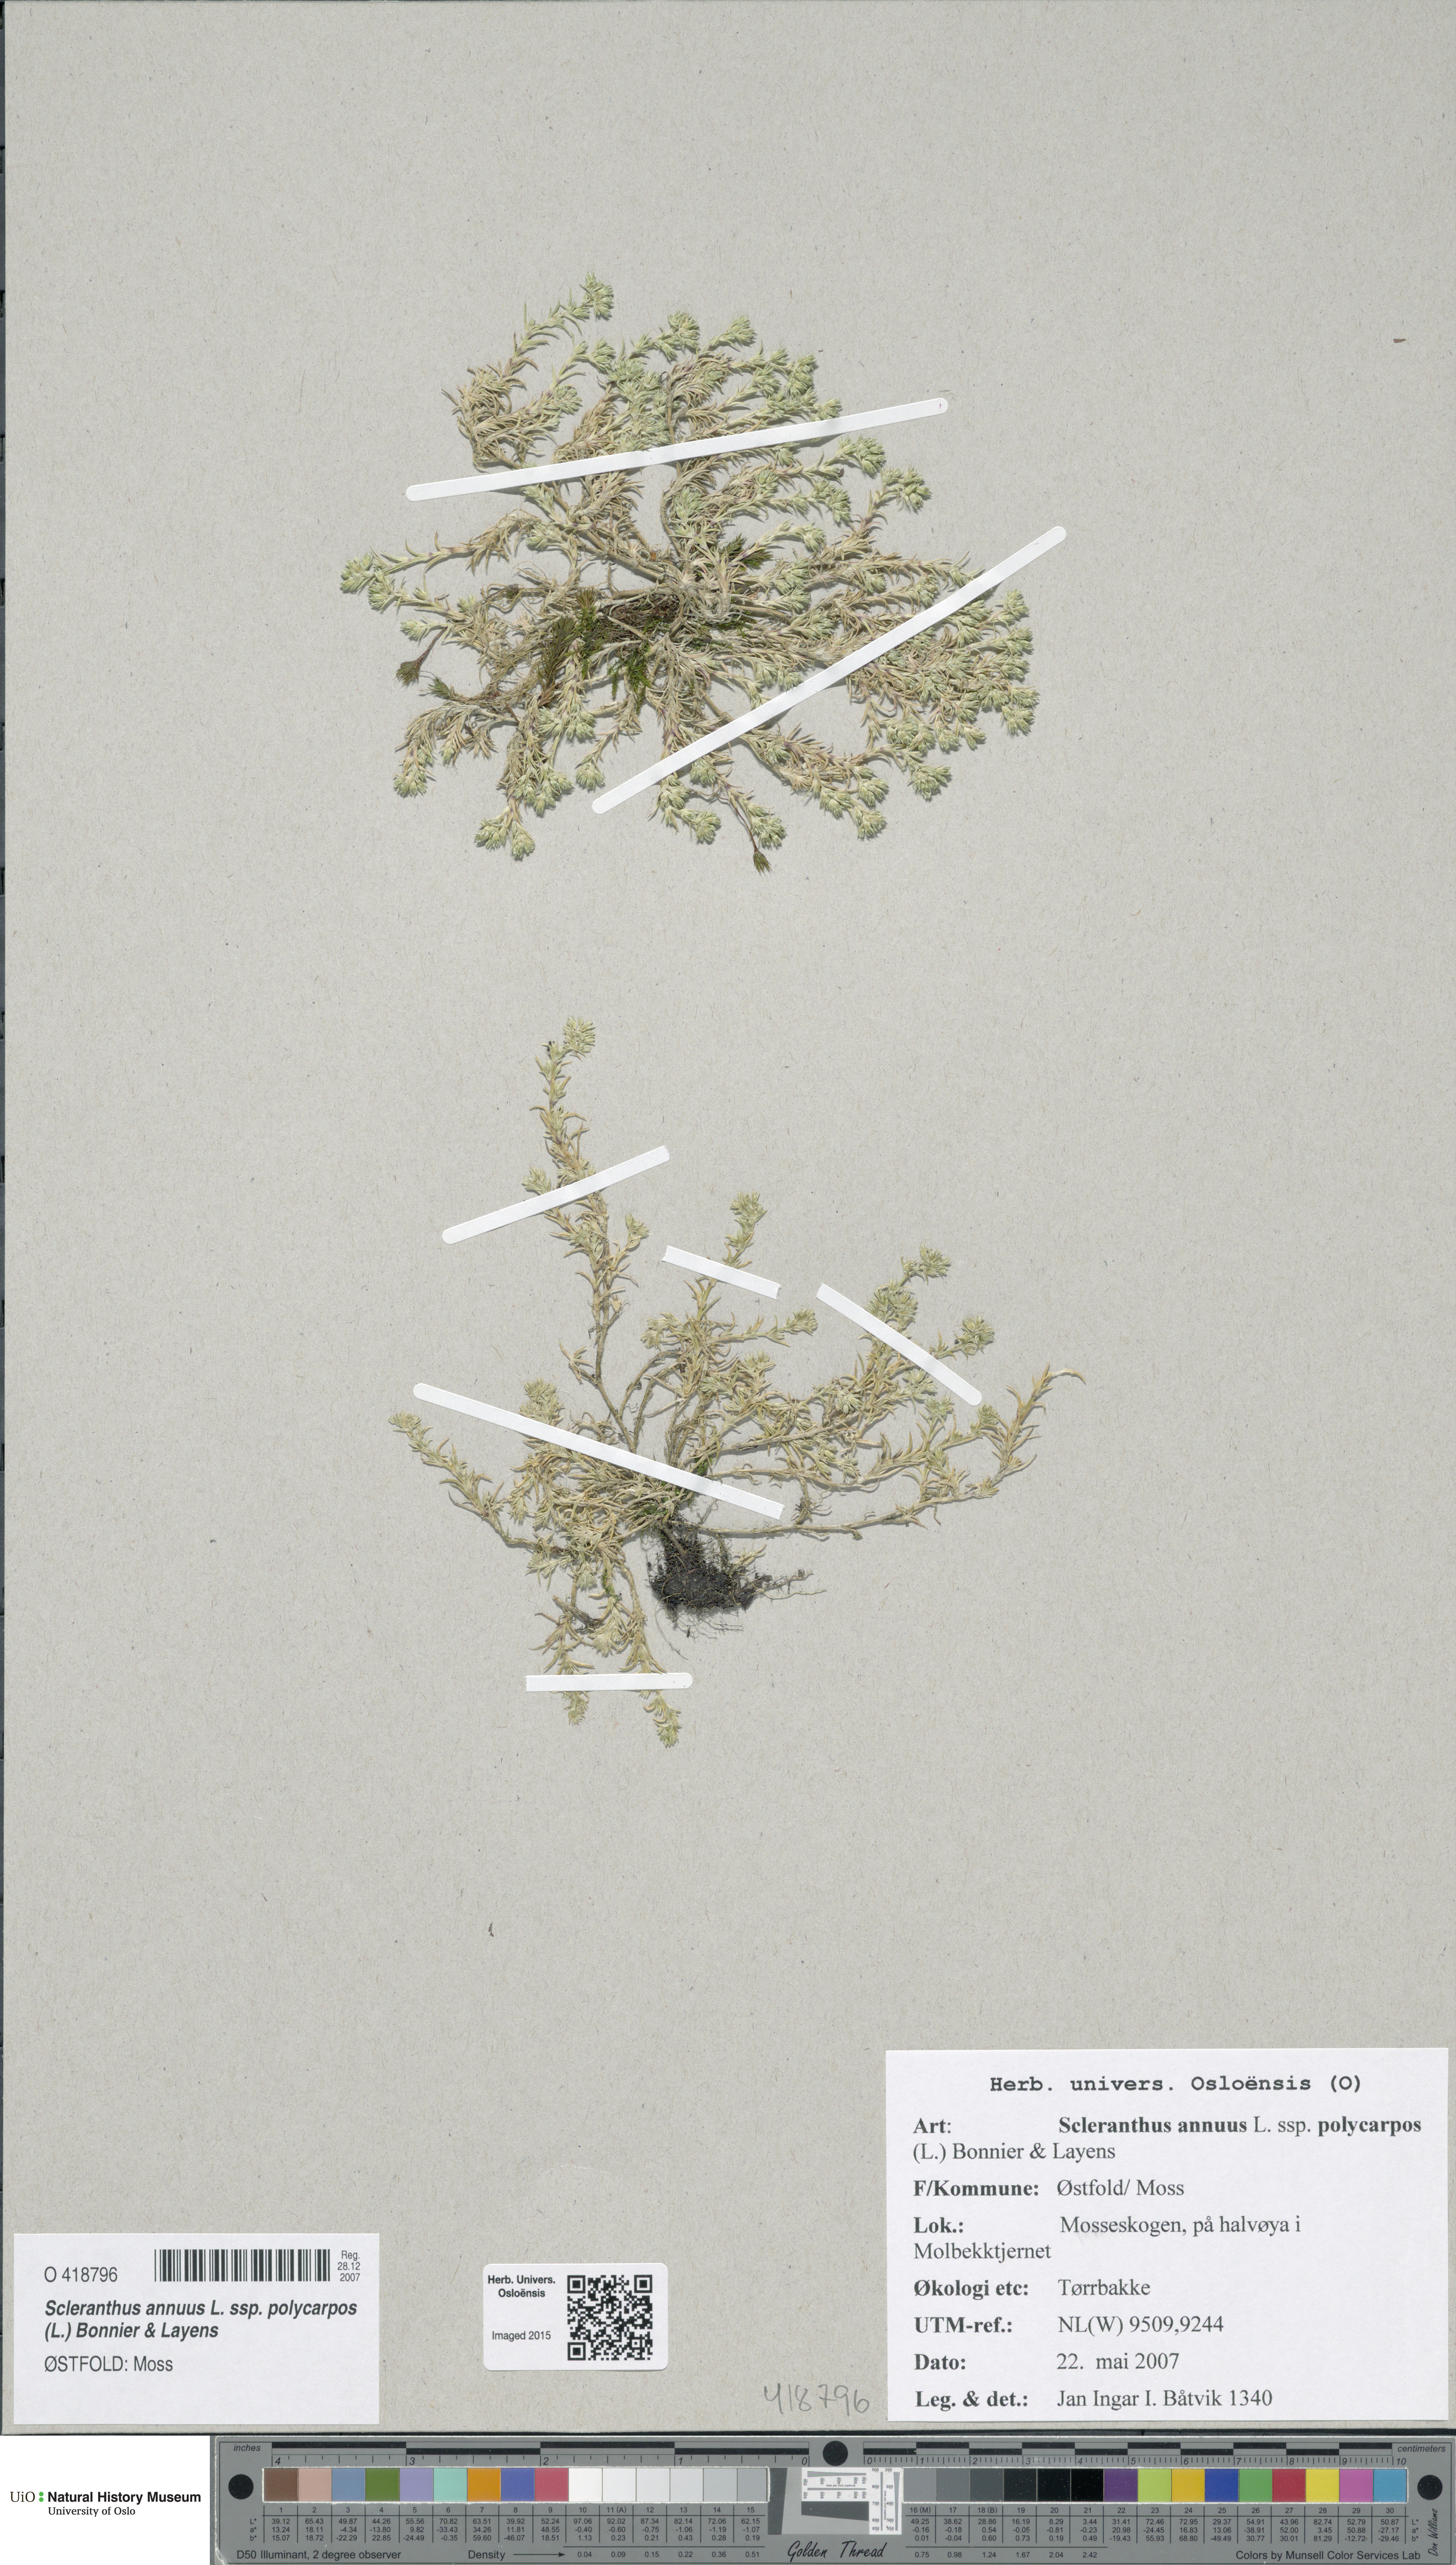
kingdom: Plantae
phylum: Tracheophyta
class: Magnoliopsida
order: Caryophyllales
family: Caryophyllaceae
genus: Scleranthus
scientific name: Scleranthus annuus
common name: Annual knawel
